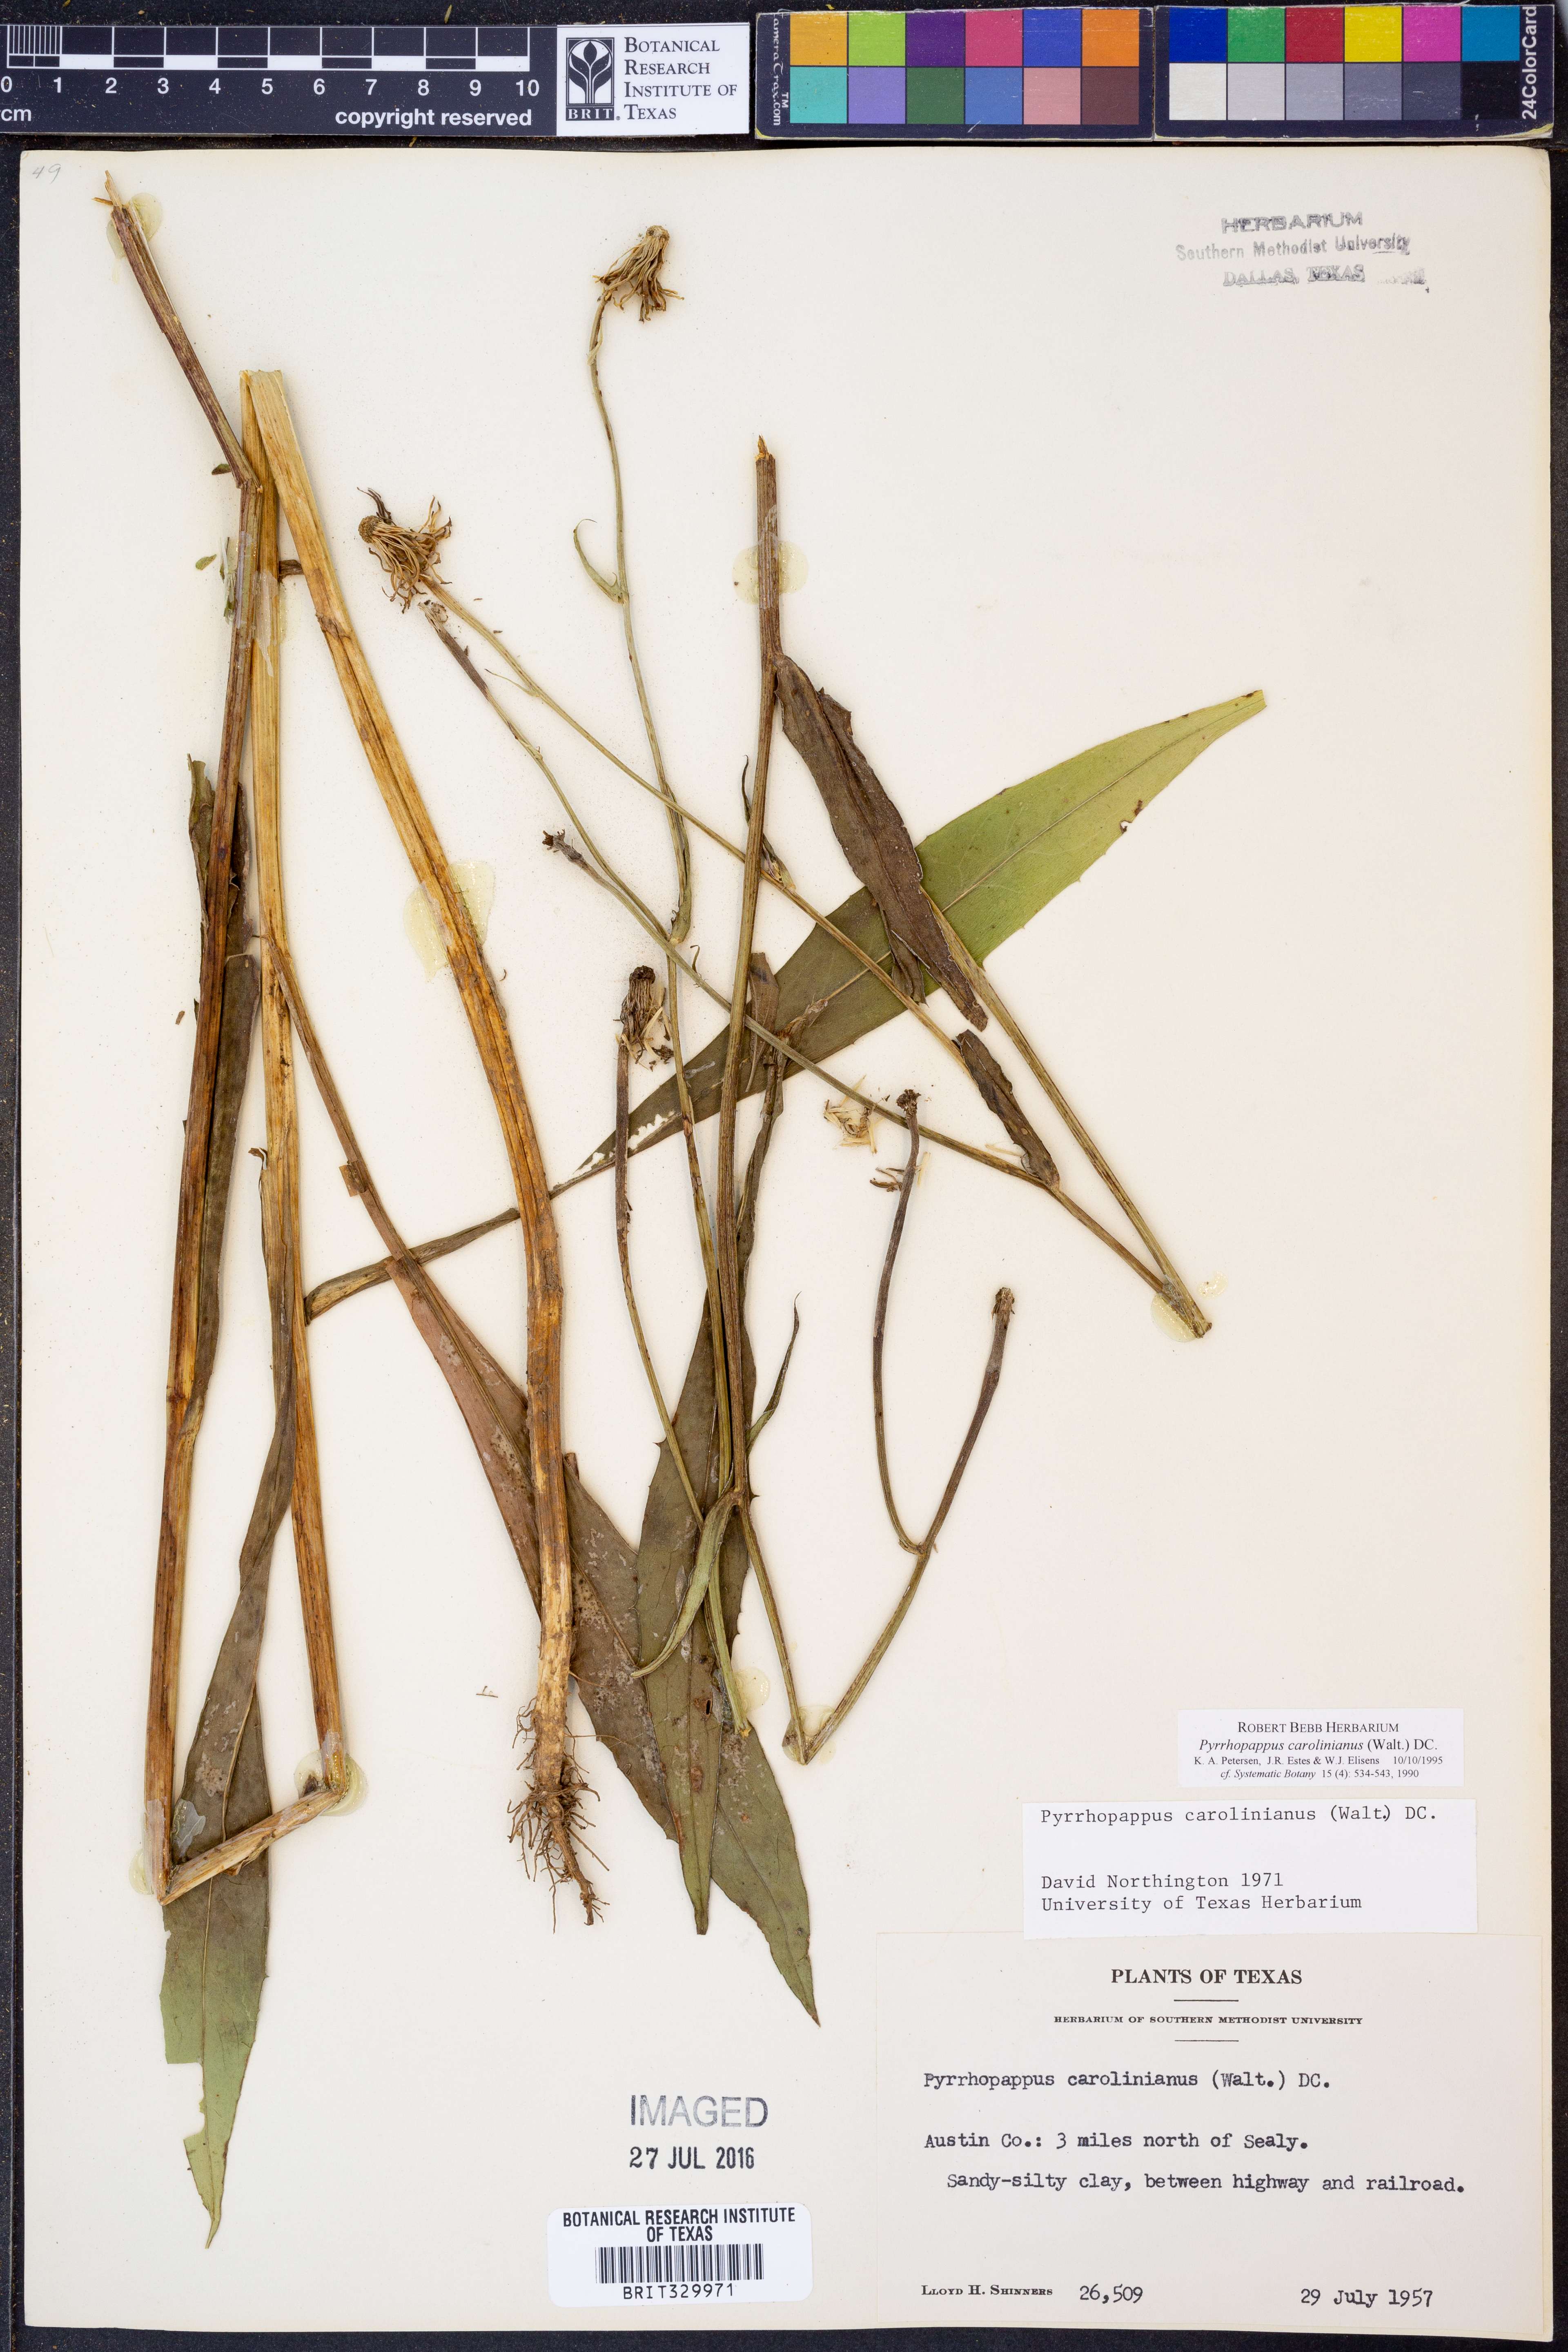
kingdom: Plantae
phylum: Tracheophyta
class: Magnoliopsida
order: Asterales
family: Asteraceae
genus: Pyrrhopappus
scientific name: Pyrrhopappus carolinianus
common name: Carolina desert-chicory
